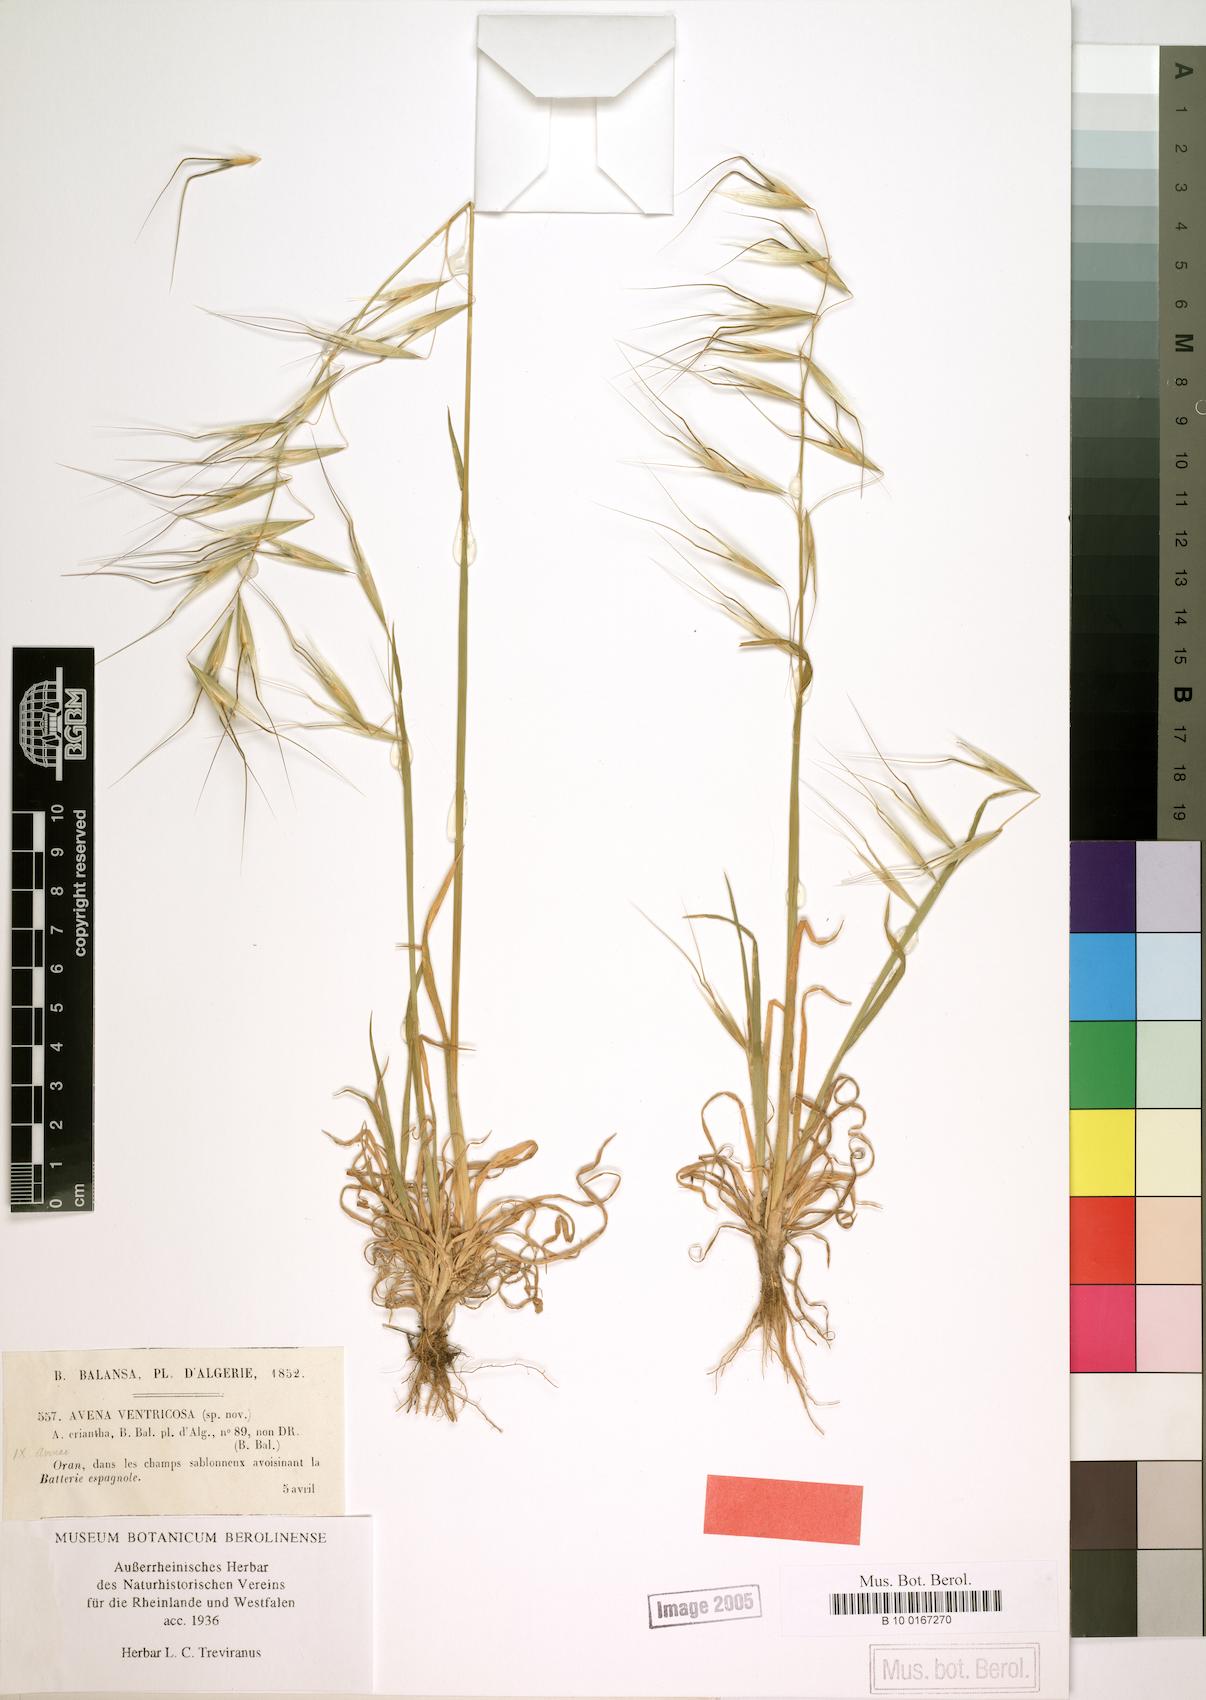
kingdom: Plantae
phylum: Tracheophyta
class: Liliopsida
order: Poales
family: Poaceae
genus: Avena
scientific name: Avena ventricosa
